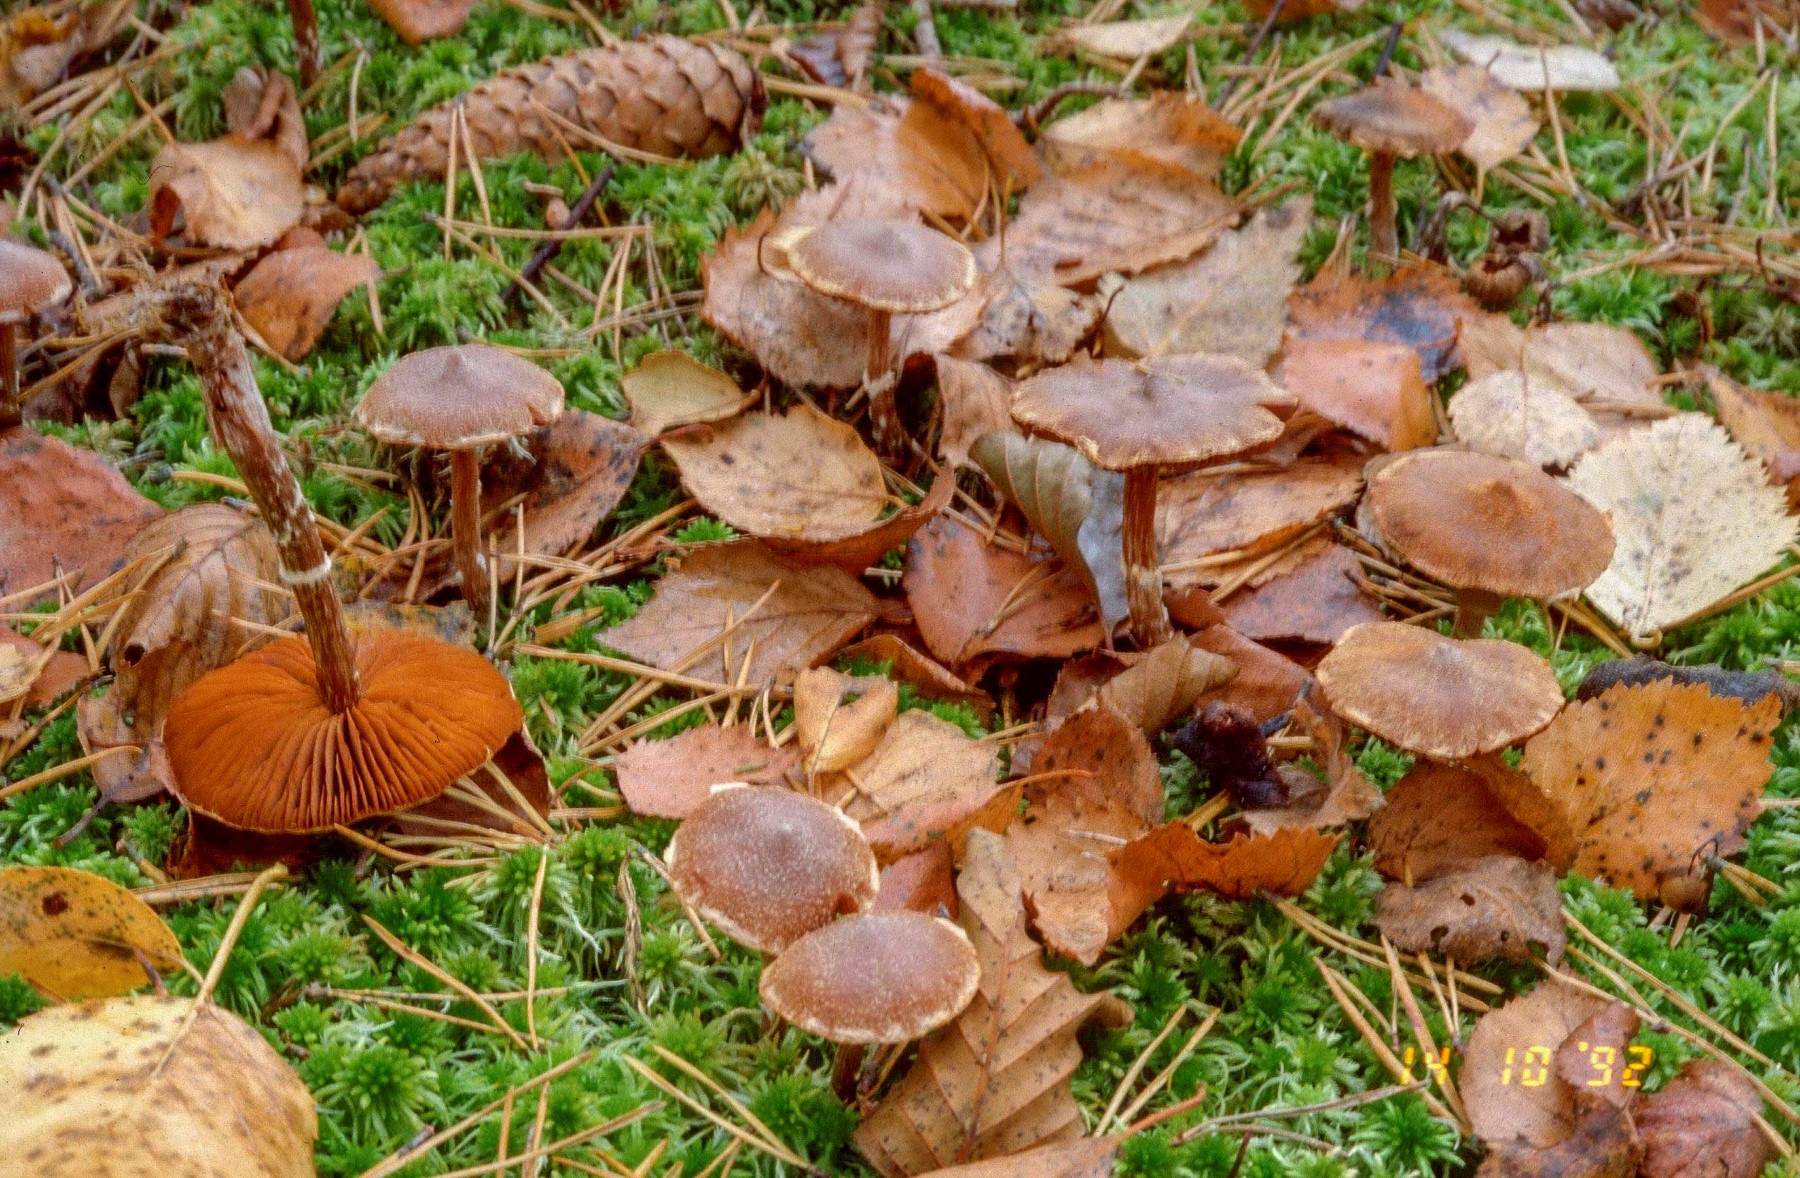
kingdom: Fungi
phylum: Basidiomycota
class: Agaricomycetes
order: Agaricales
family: Cortinariaceae
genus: Cortinarius
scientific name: Cortinarius hemitrichus
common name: hvidfnugget slørhat
